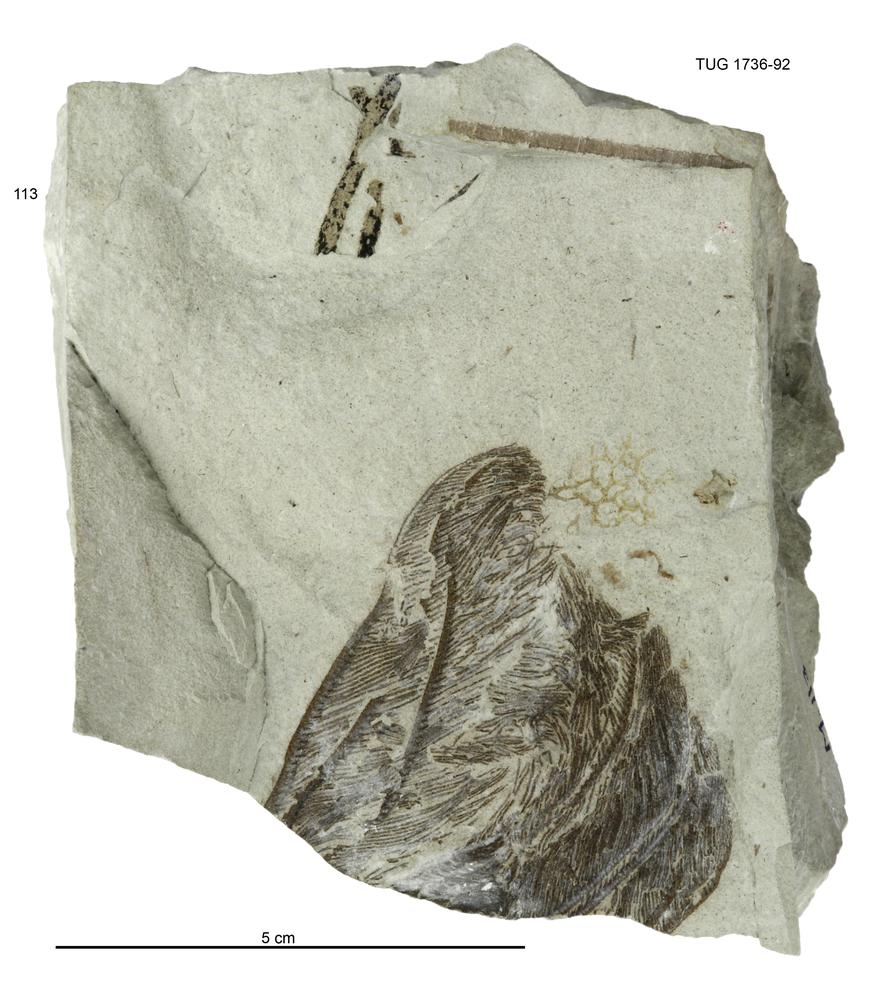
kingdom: Animalia
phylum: Echinodermata
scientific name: Echinodermata
